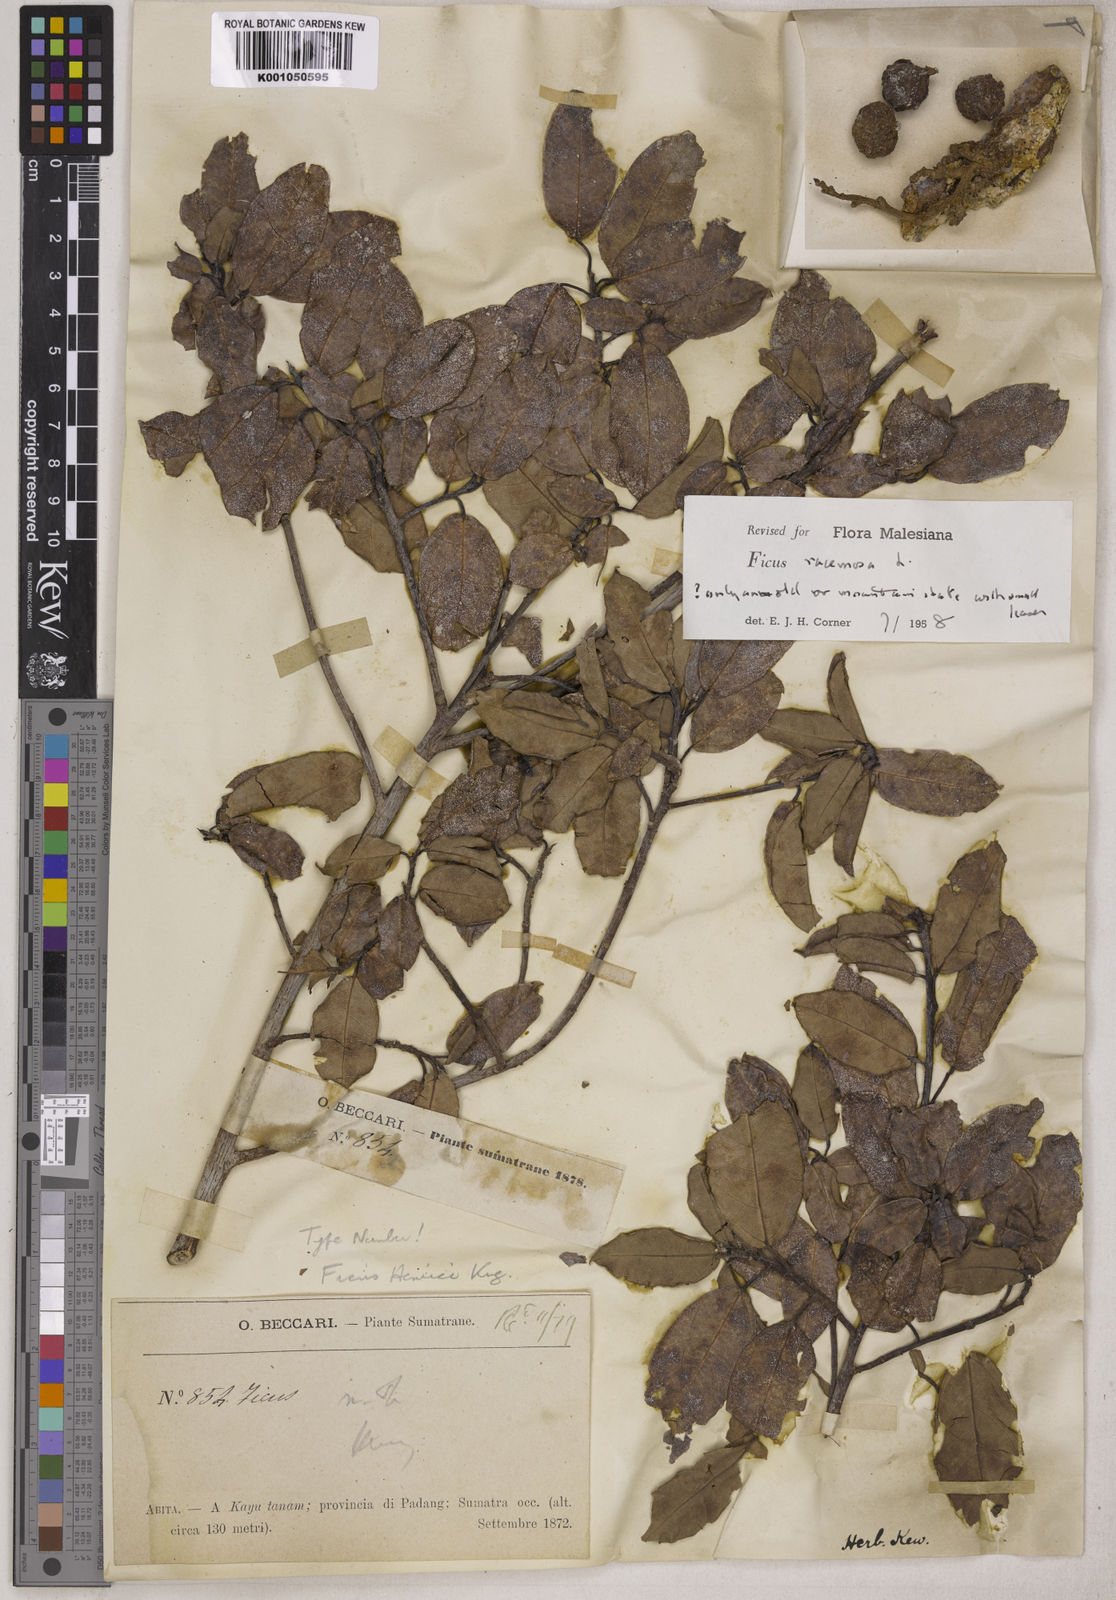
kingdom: Plantae
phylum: Tracheophyta
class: Magnoliopsida
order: Rosales
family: Moraceae
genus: Ficus
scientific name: Ficus racemosa
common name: Cluster fig
